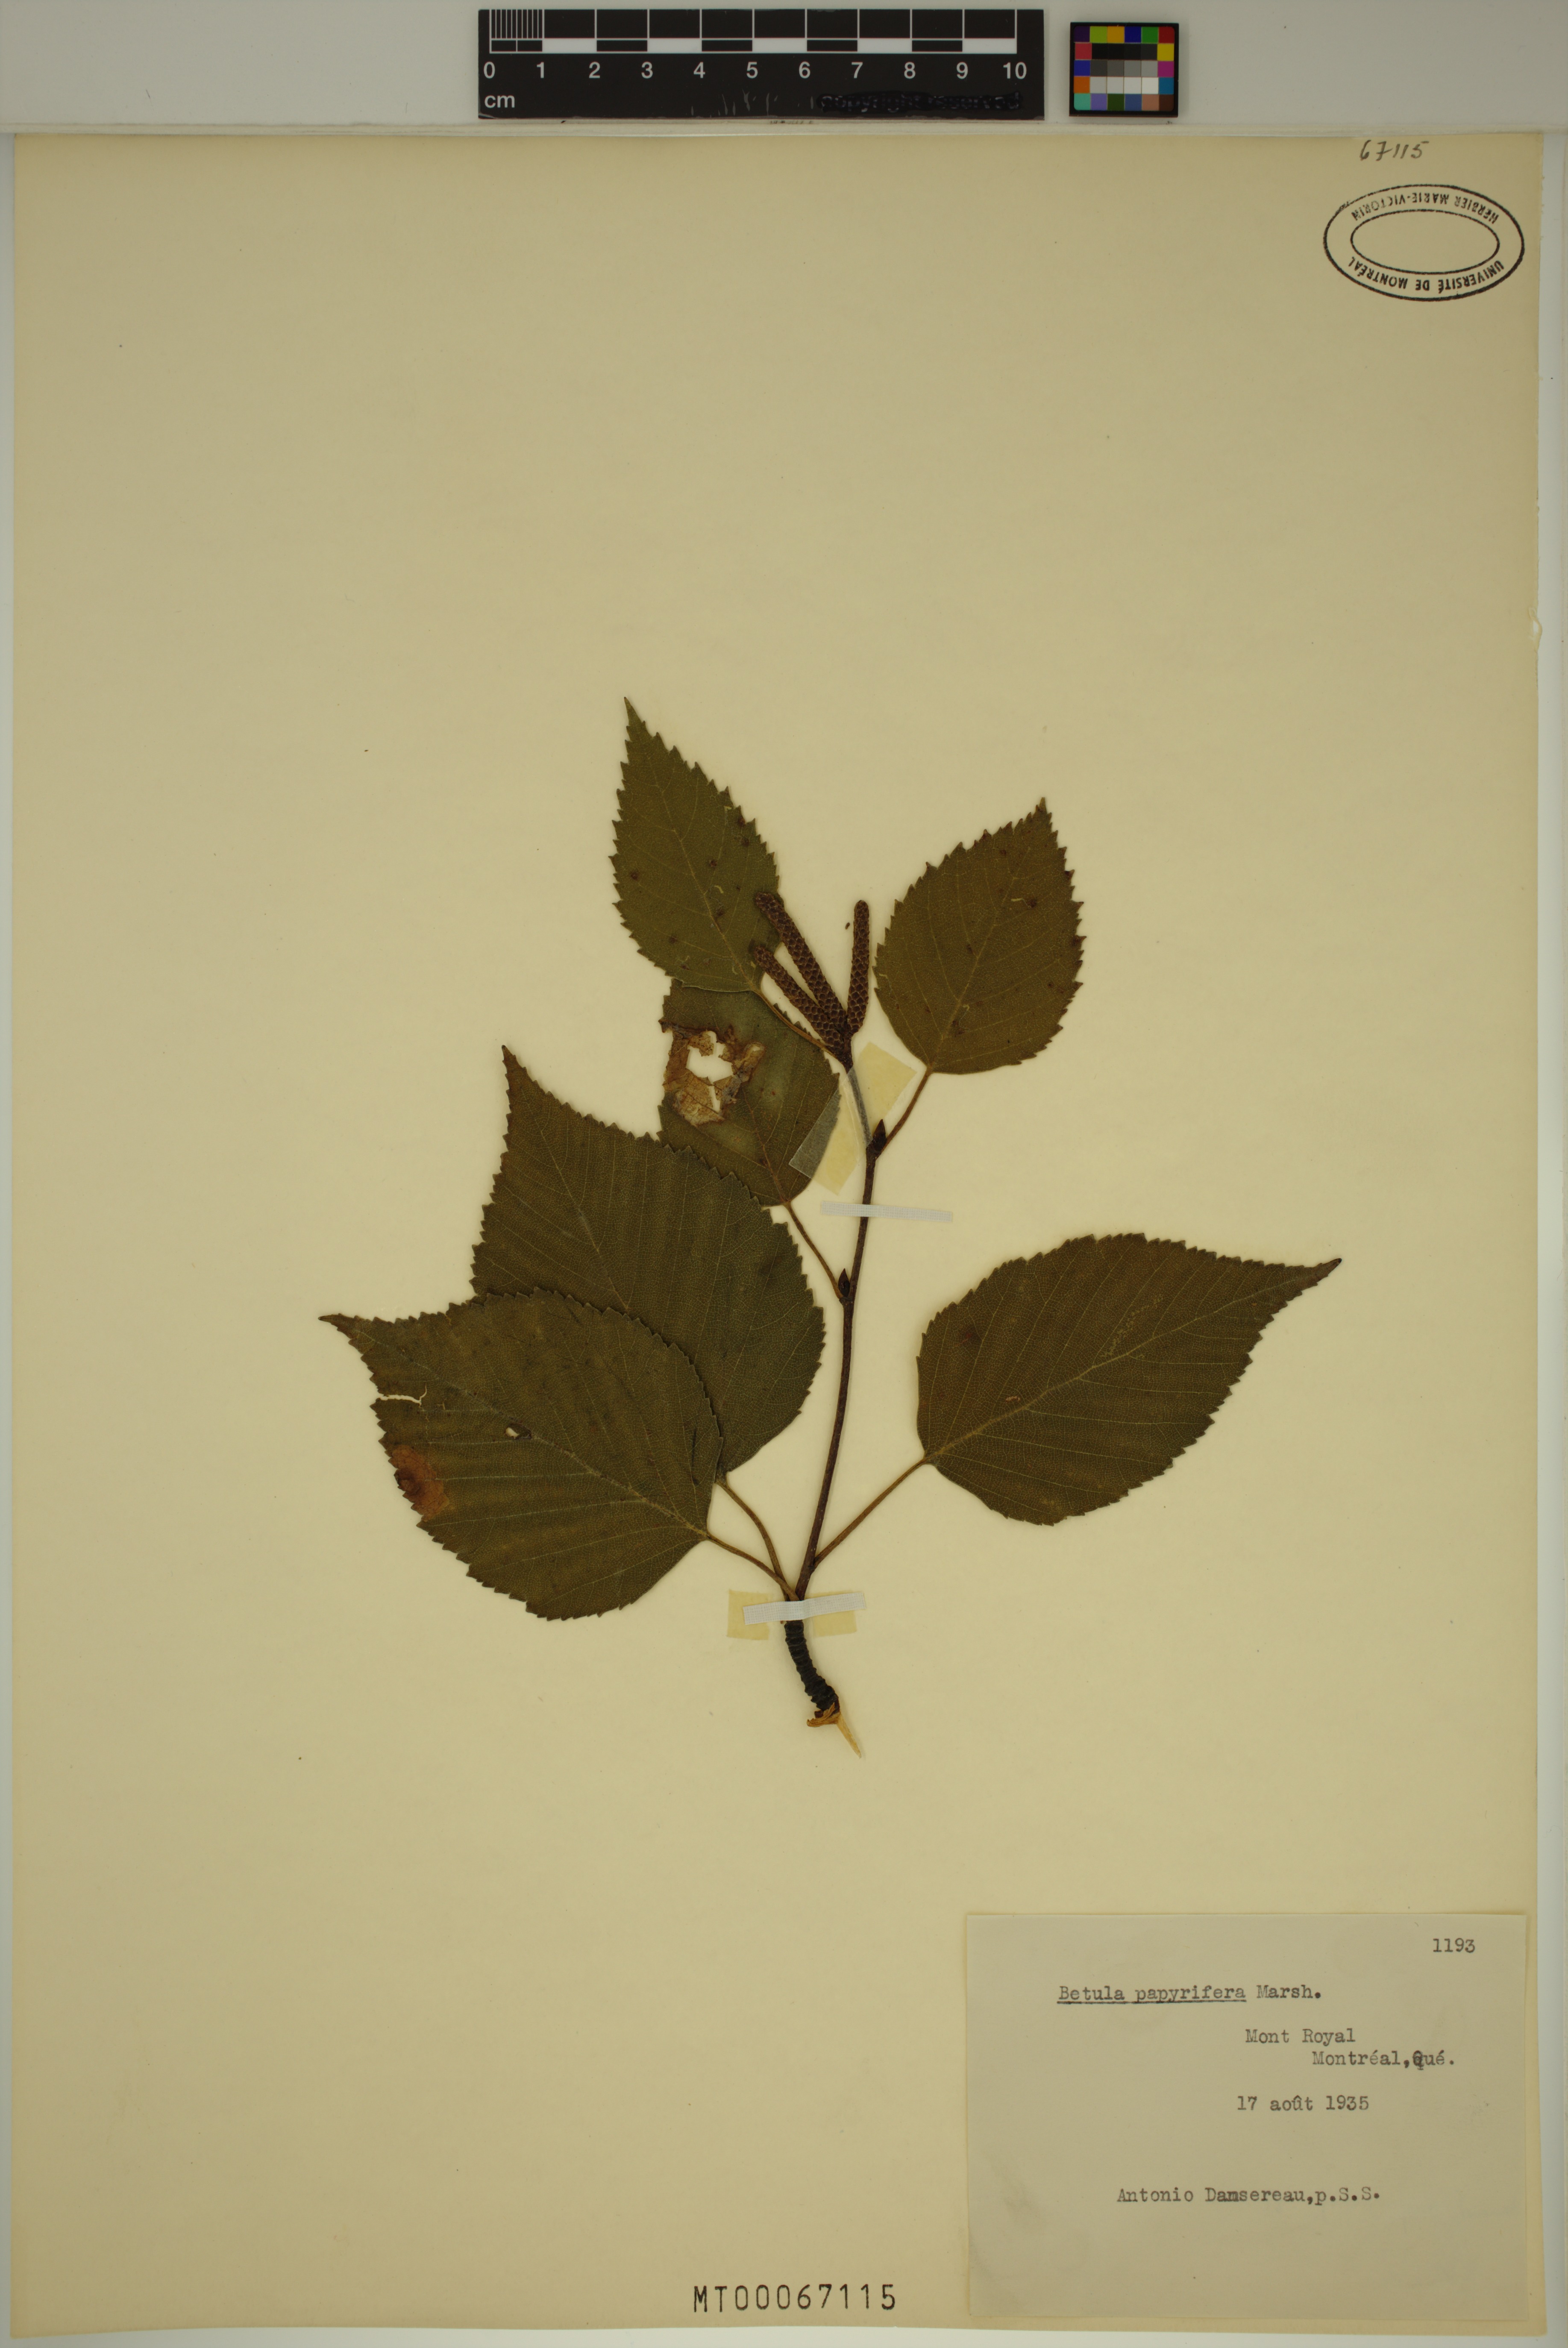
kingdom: Plantae
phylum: Tracheophyta
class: Magnoliopsida
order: Fagales
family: Betulaceae
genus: Betula
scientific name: Betula papyrifera
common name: Paper birch
